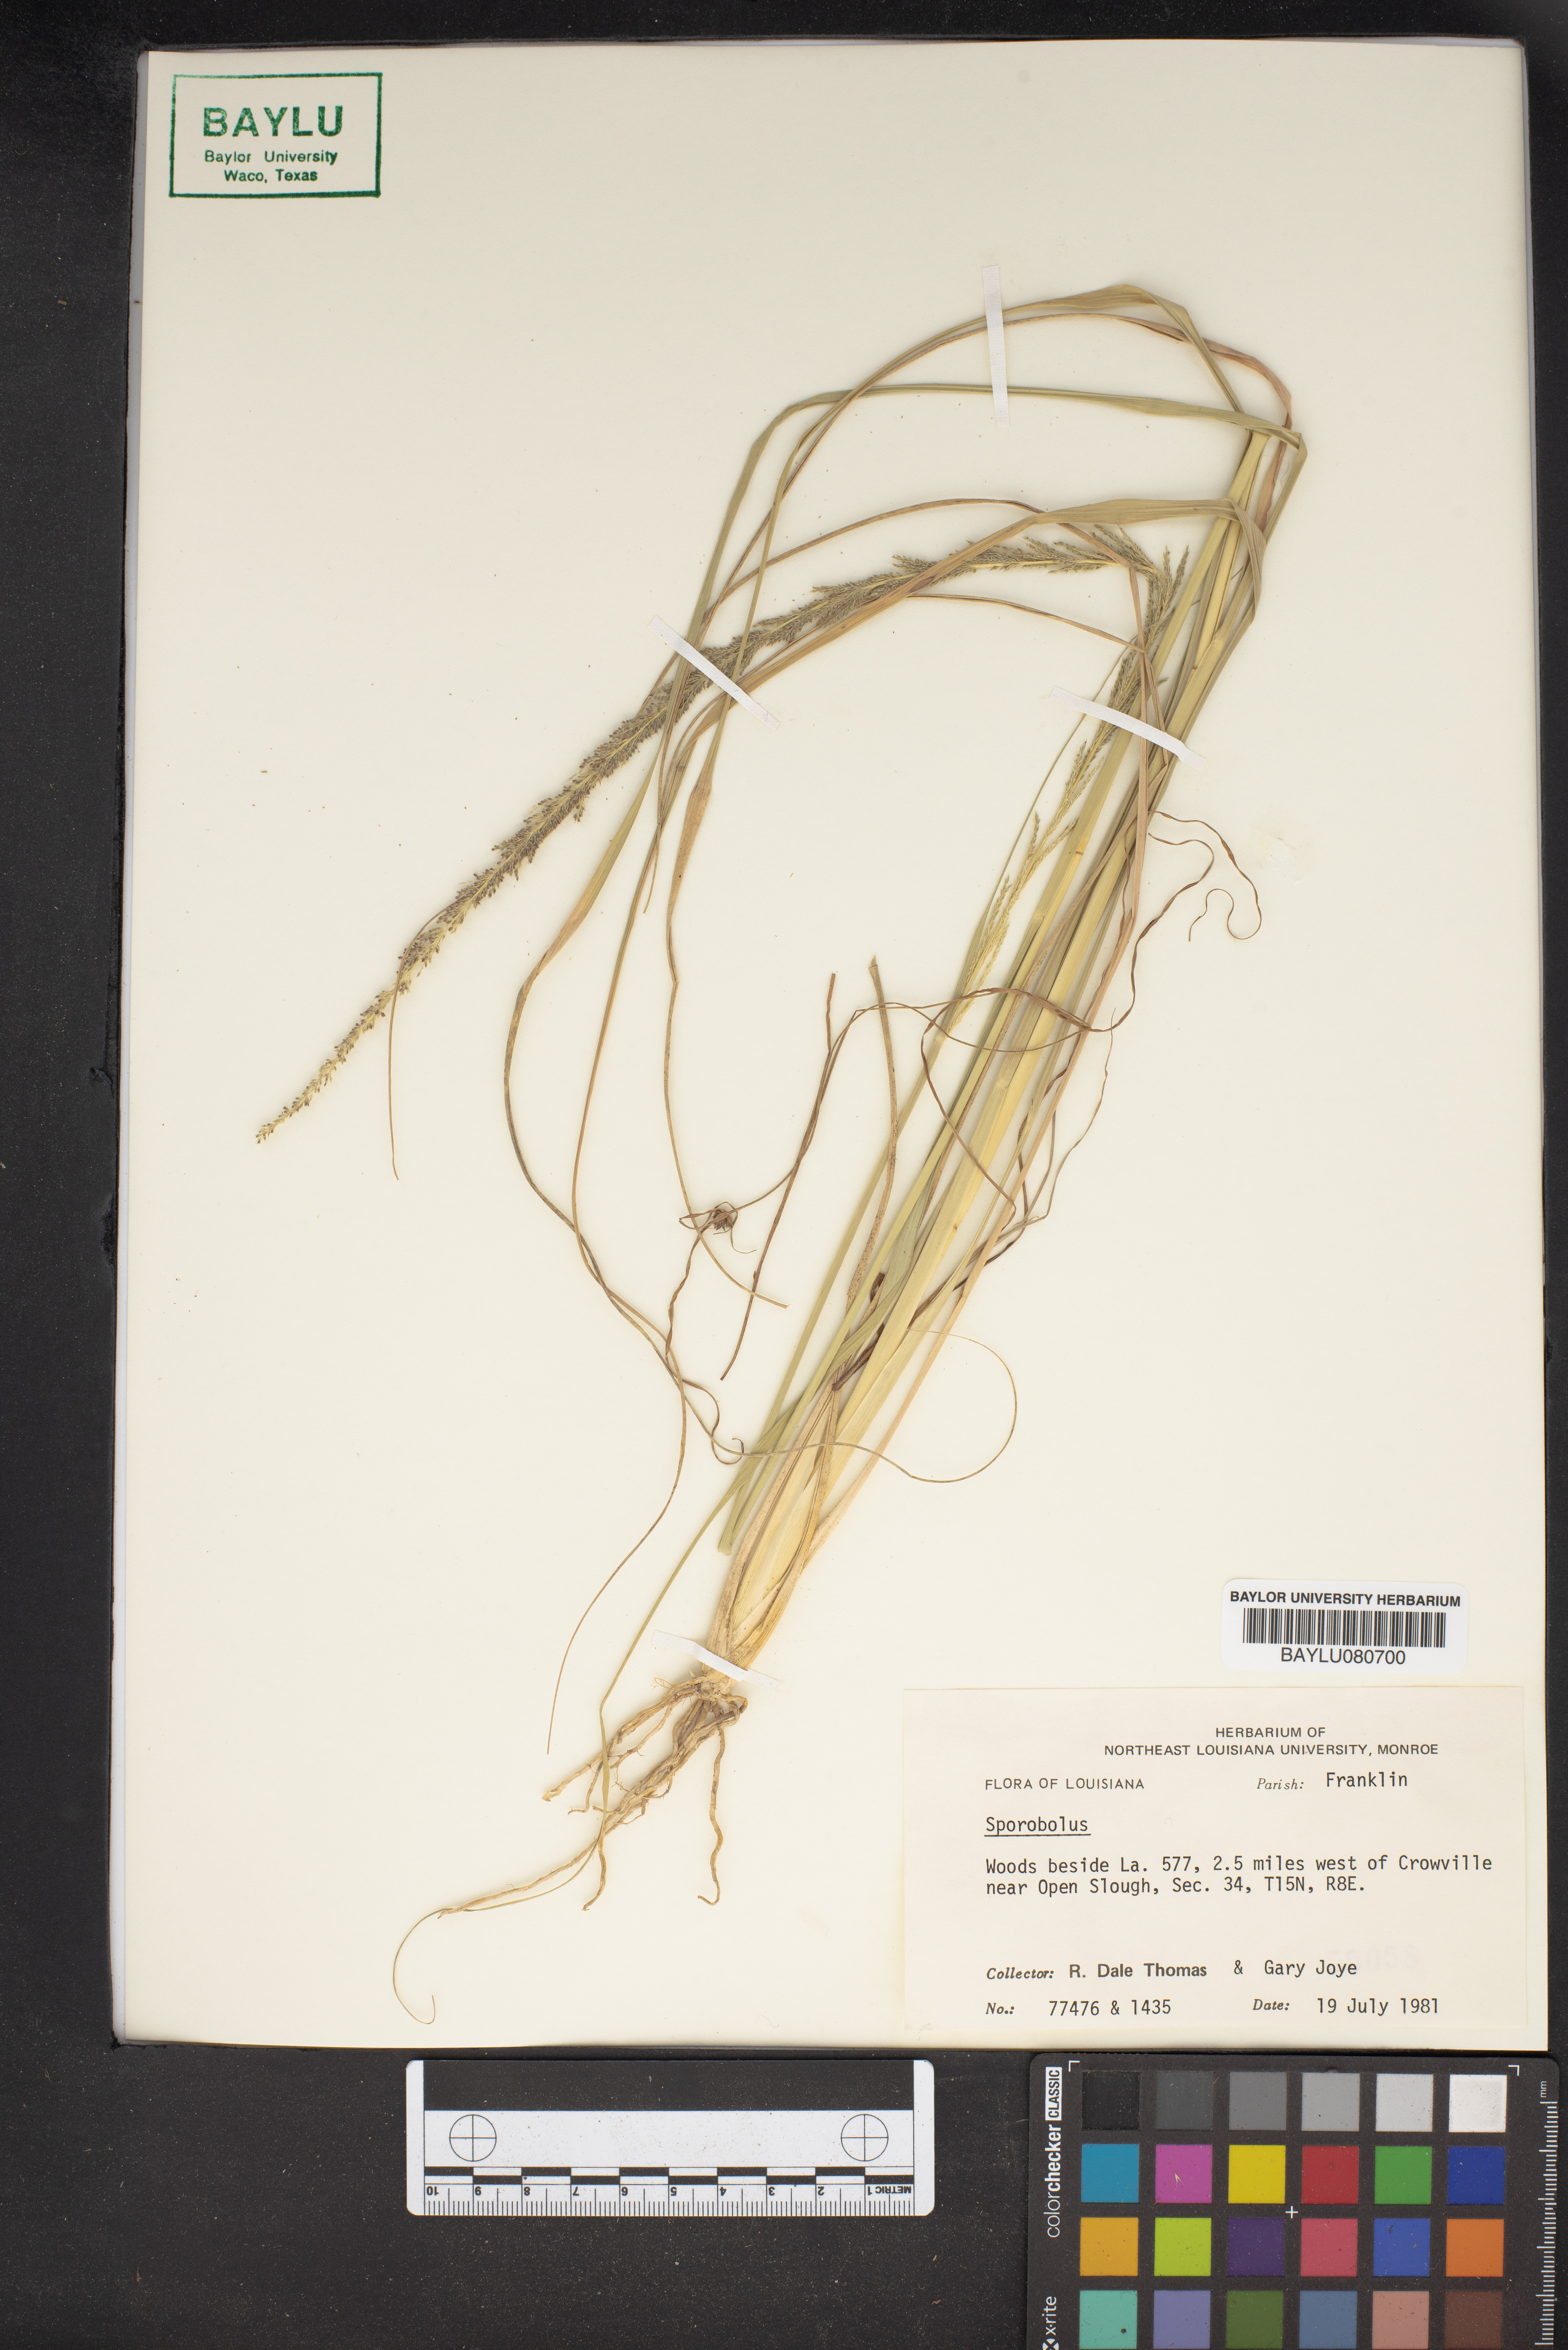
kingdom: Plantae
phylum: Tracheophyta
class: Liliopsida
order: Poales
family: Poaceae
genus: Sporobolus
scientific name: Sporobolus
